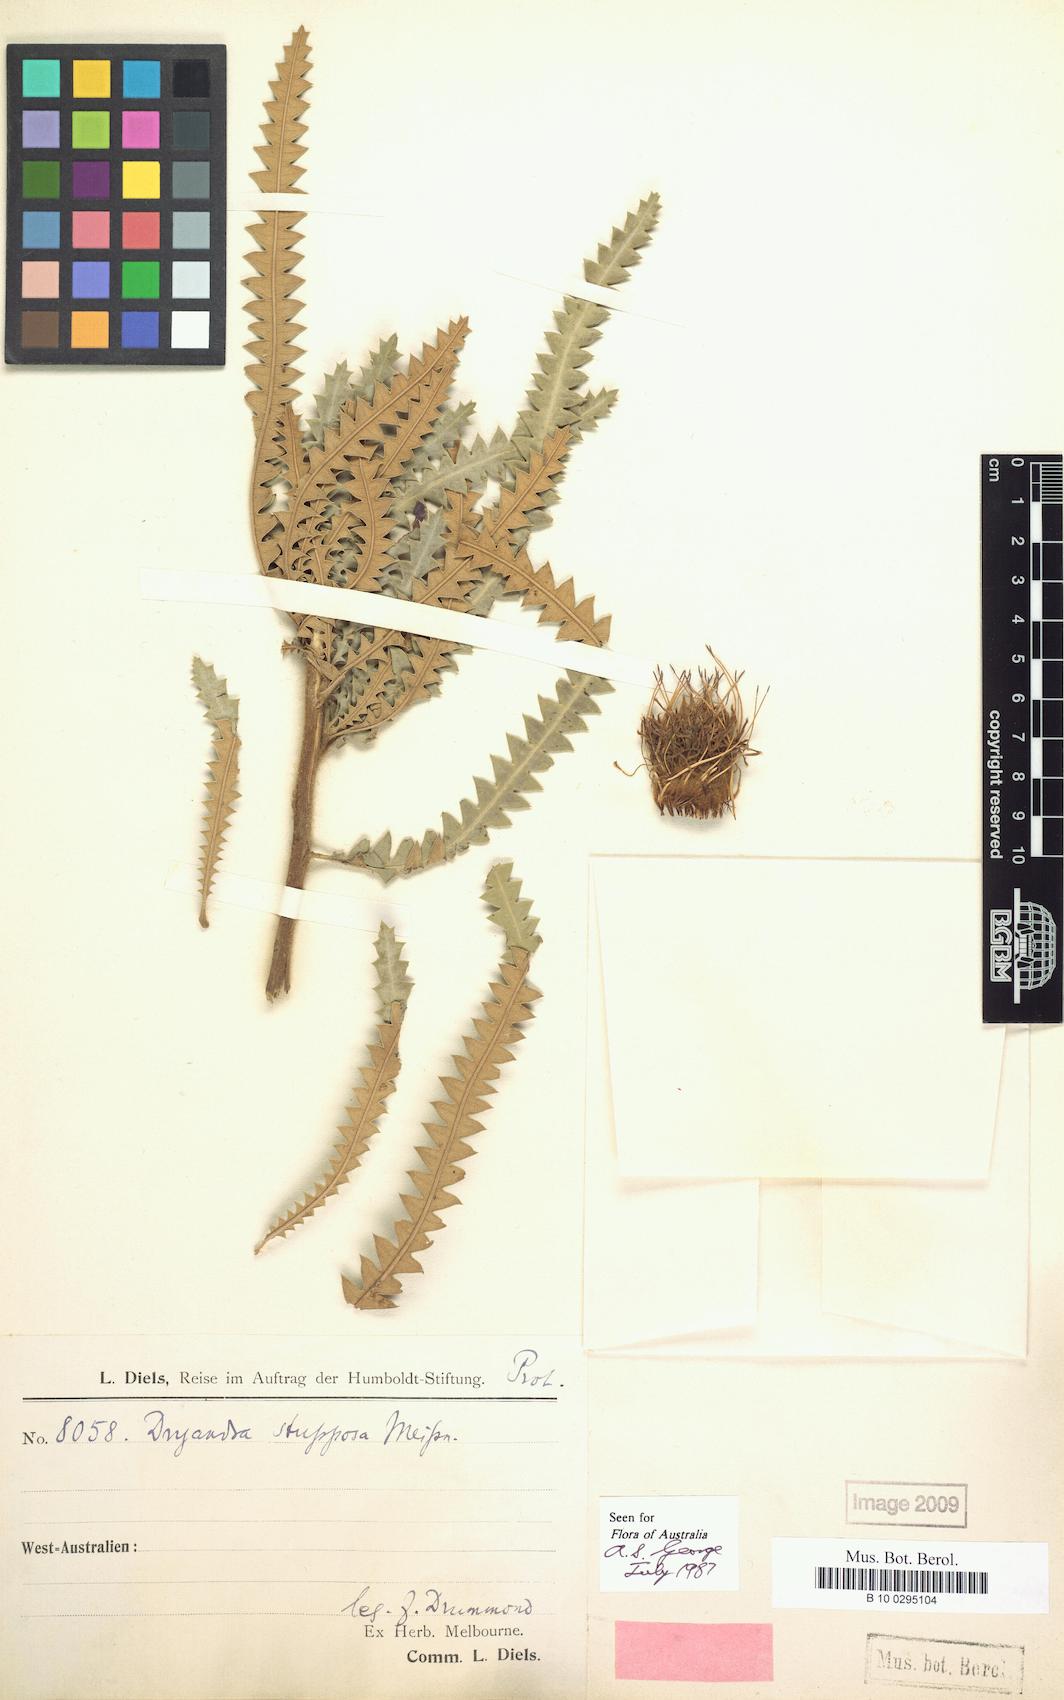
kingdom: Plantae
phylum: Tracheophyta
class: Magnoliopsida
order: Proteales
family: Proteaceae
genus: Banksia
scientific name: Banksia stuposa
